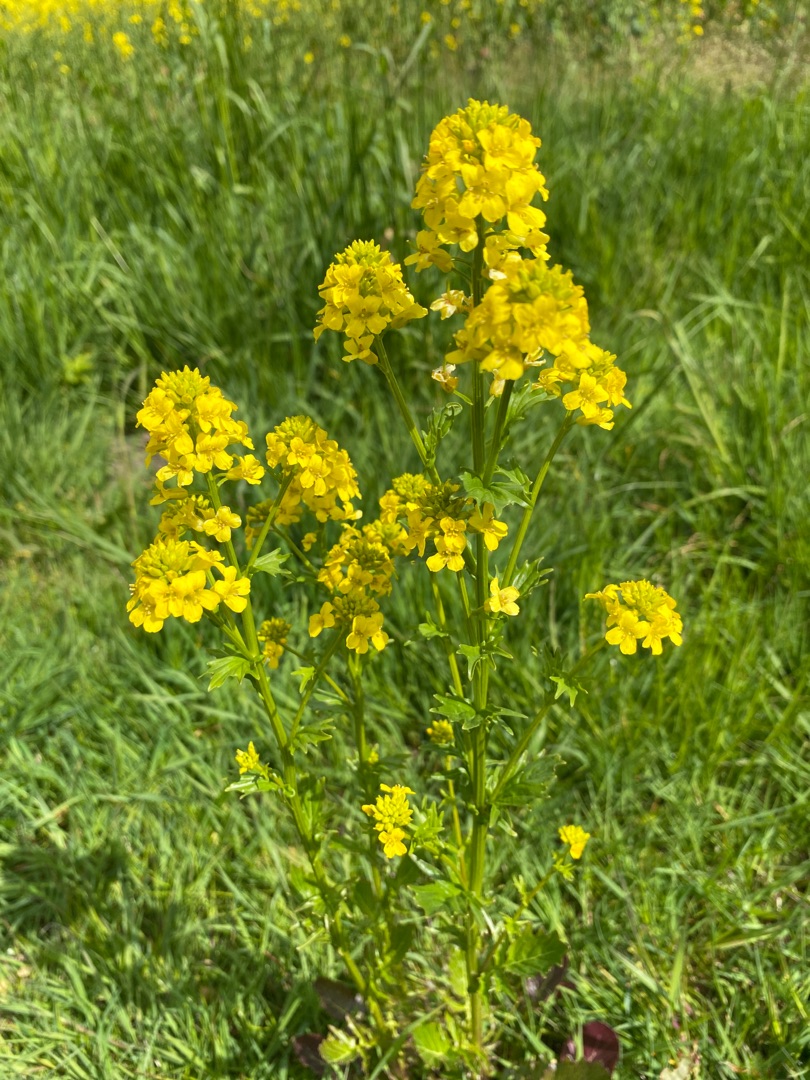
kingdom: Plantae
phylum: Tracheophyta
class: Magnoliopsida
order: Brassicales
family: Brassicaceae
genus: Barbarea
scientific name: Barbarea vulgaris
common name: Udspærret vinterkarse
